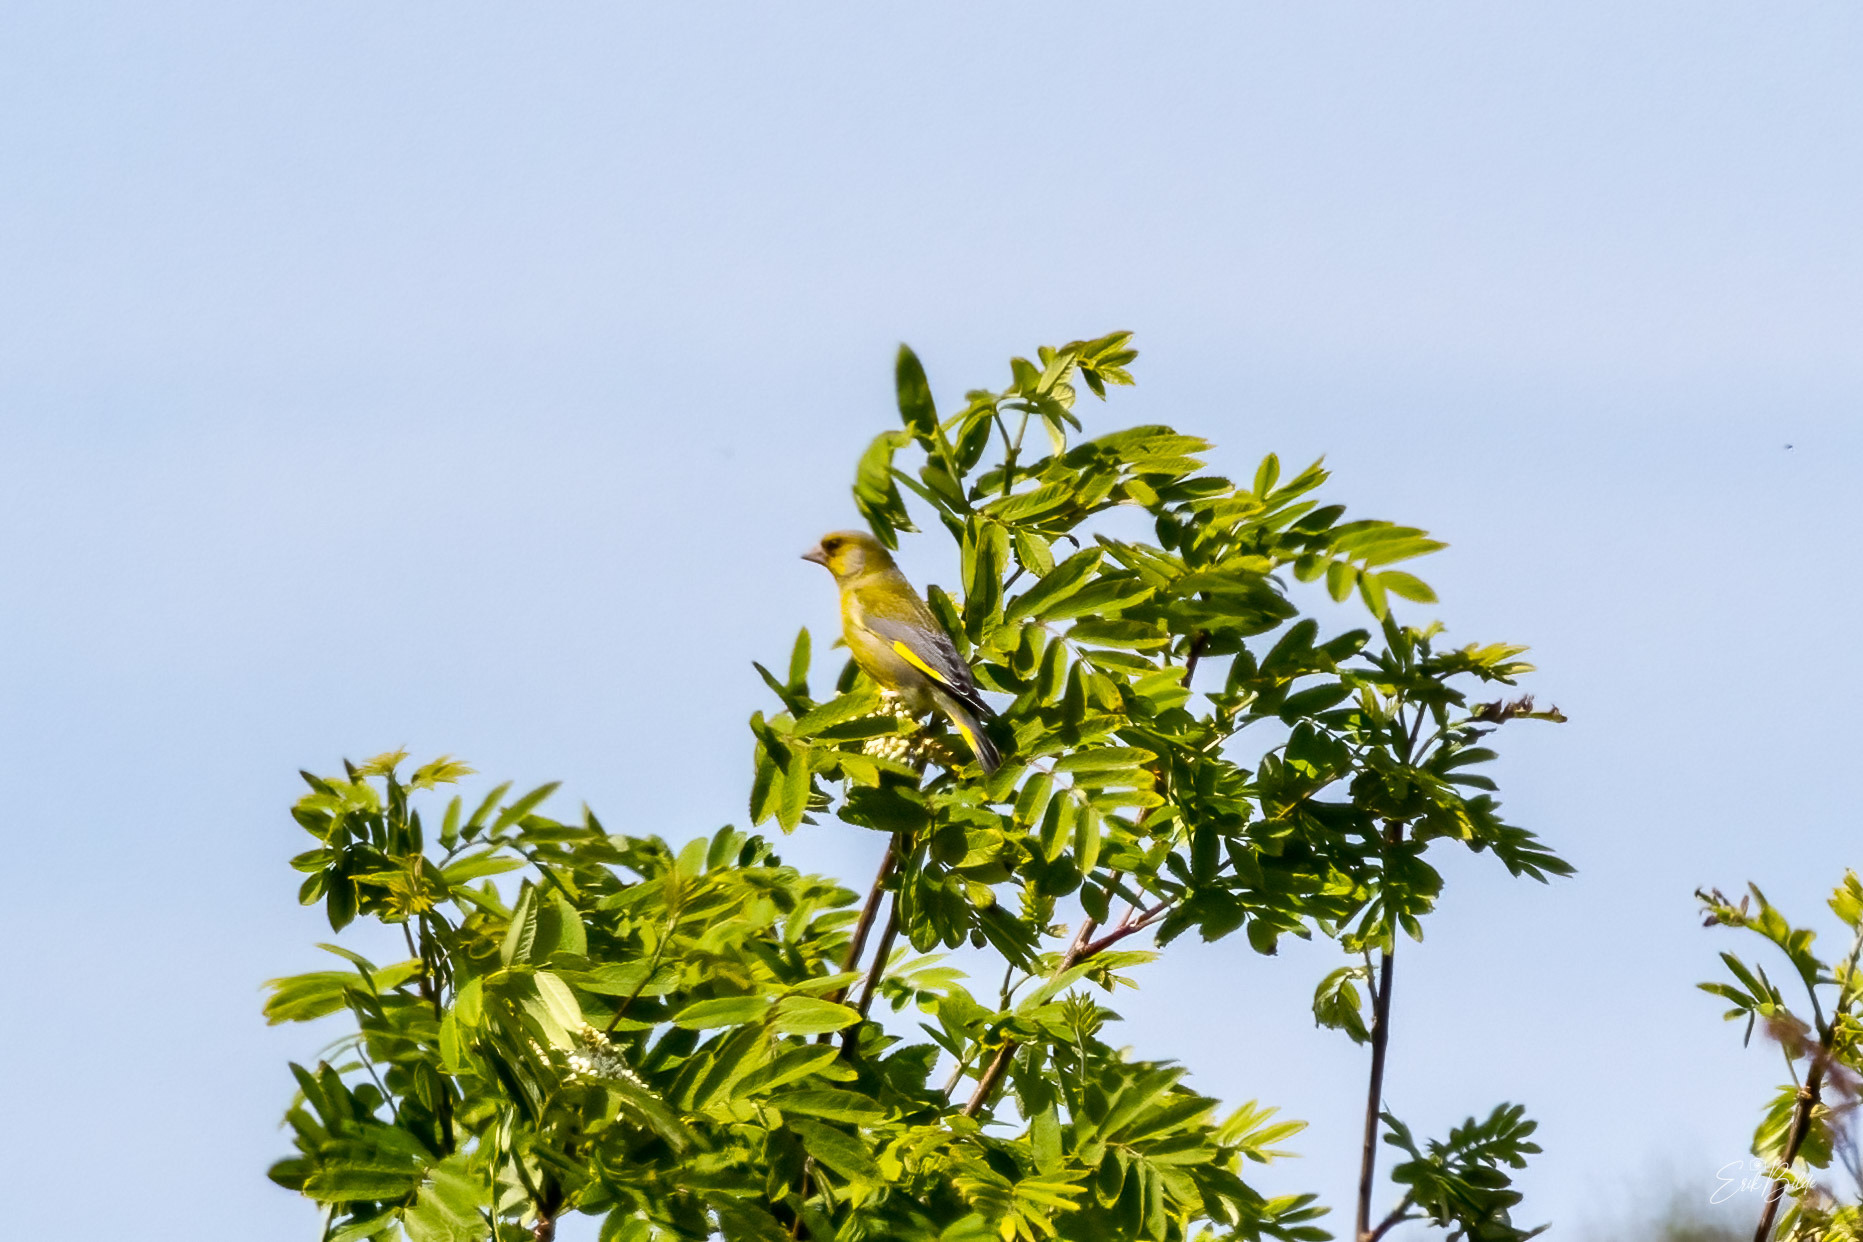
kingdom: Plantae
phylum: Tracheophyta
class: Liliopsida
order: Poales
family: Poaceae
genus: Chloris
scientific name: Chloris chloris
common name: Grønirisk
